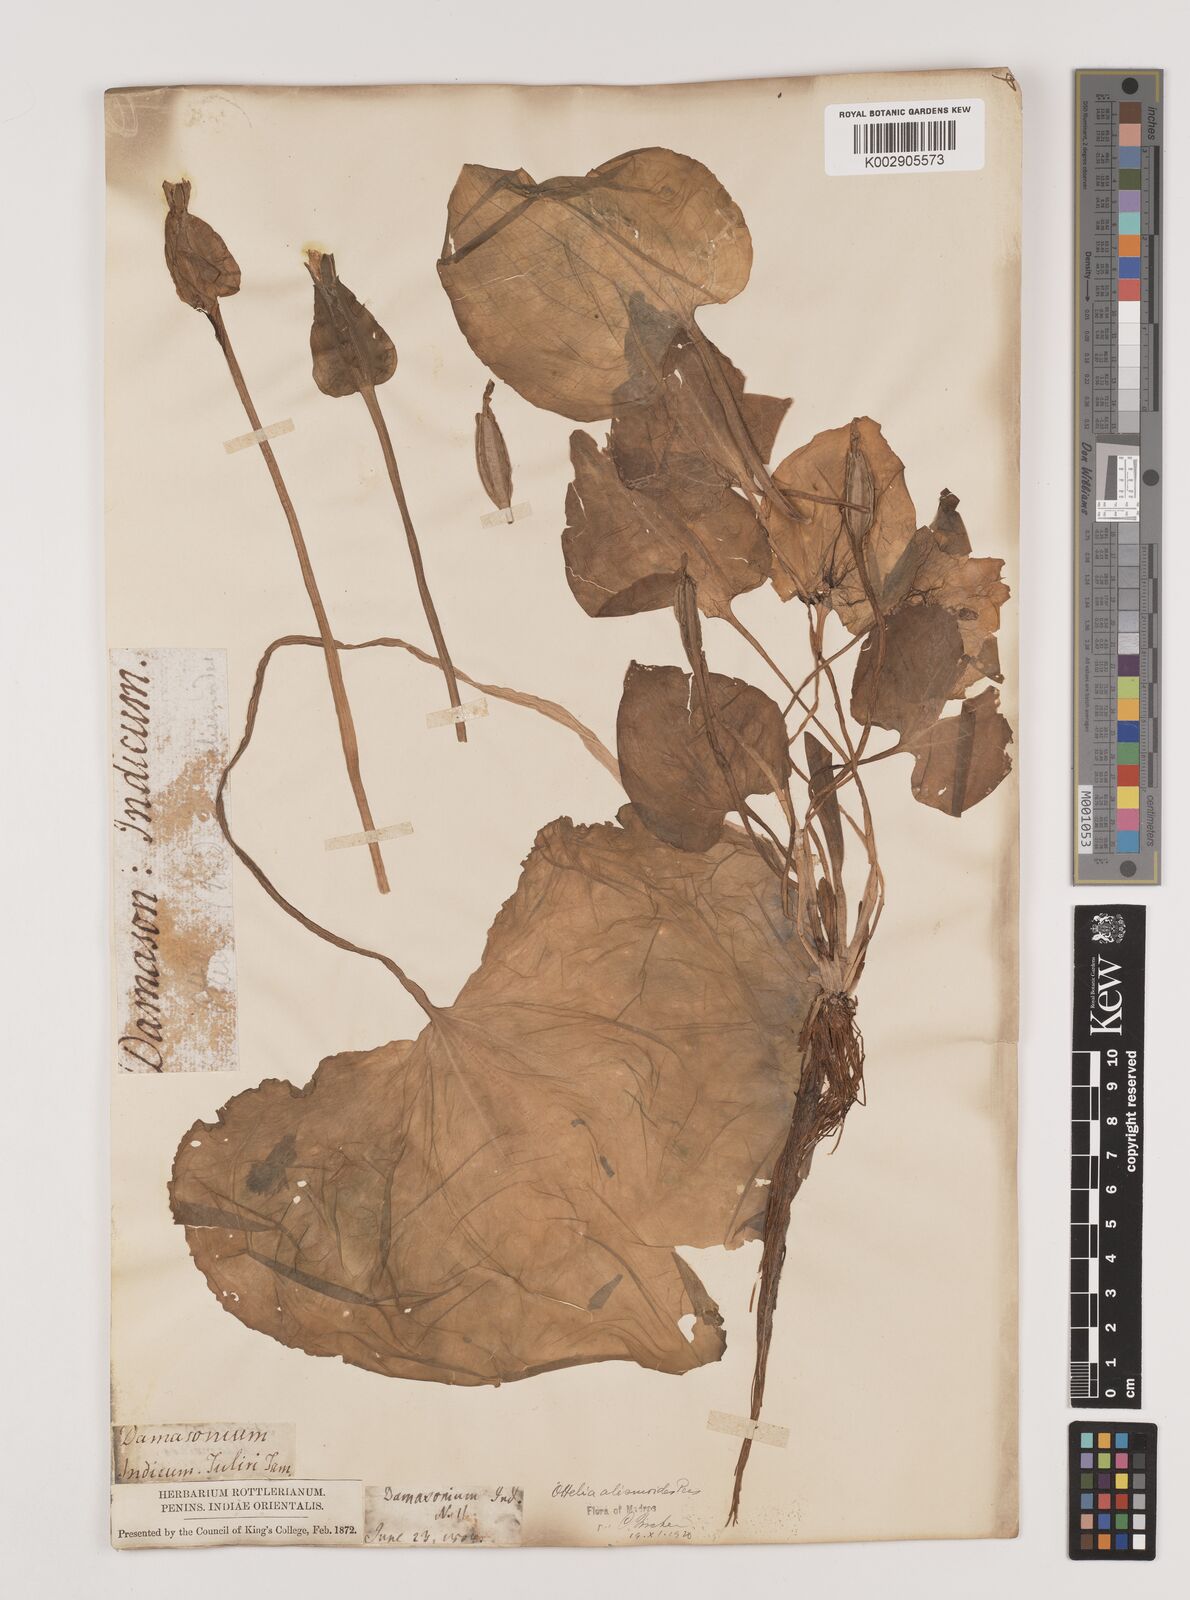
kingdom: Plantae
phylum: Tracheophyta
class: Liliopsida
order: Alismatales
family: Hydrocharitaceae
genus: Ottelia
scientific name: Ottelia alismoides
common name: Duck-lettuce
